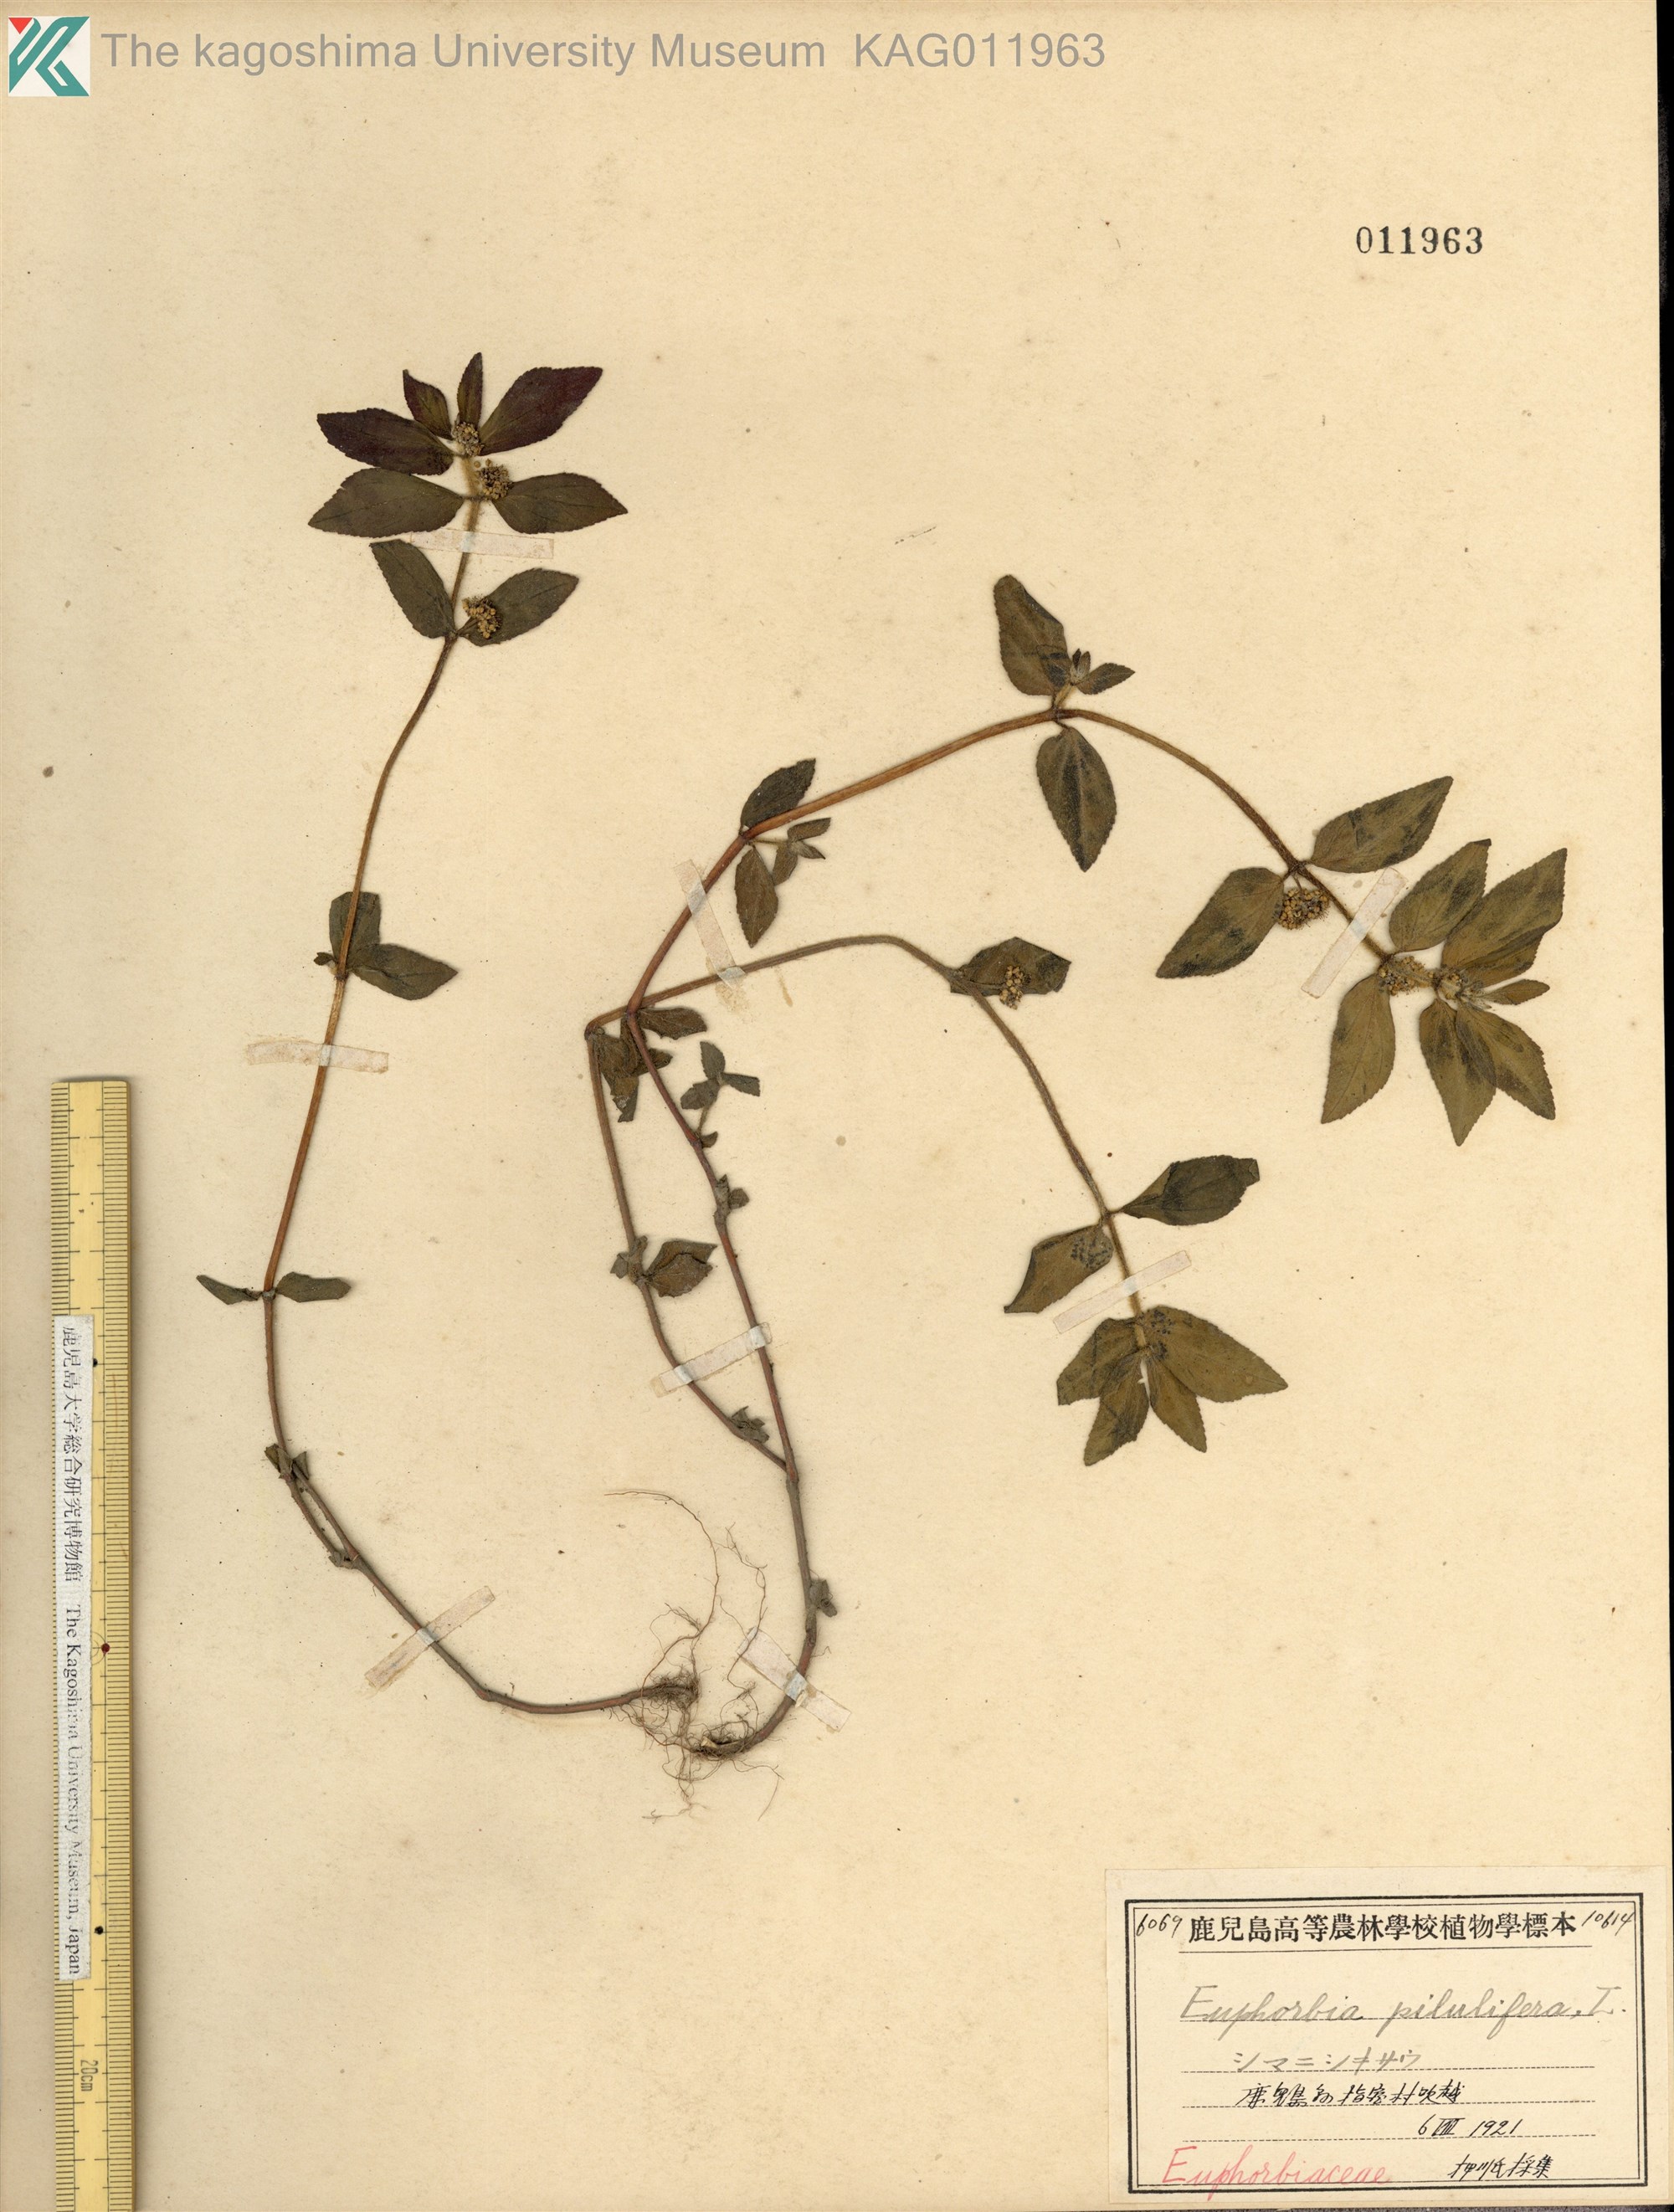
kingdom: Plantae
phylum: Tracheophyta
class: Magnoliopsida
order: Malpighiales
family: Euphorbiaceae
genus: Euphorbia
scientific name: Euphorbia hirta
